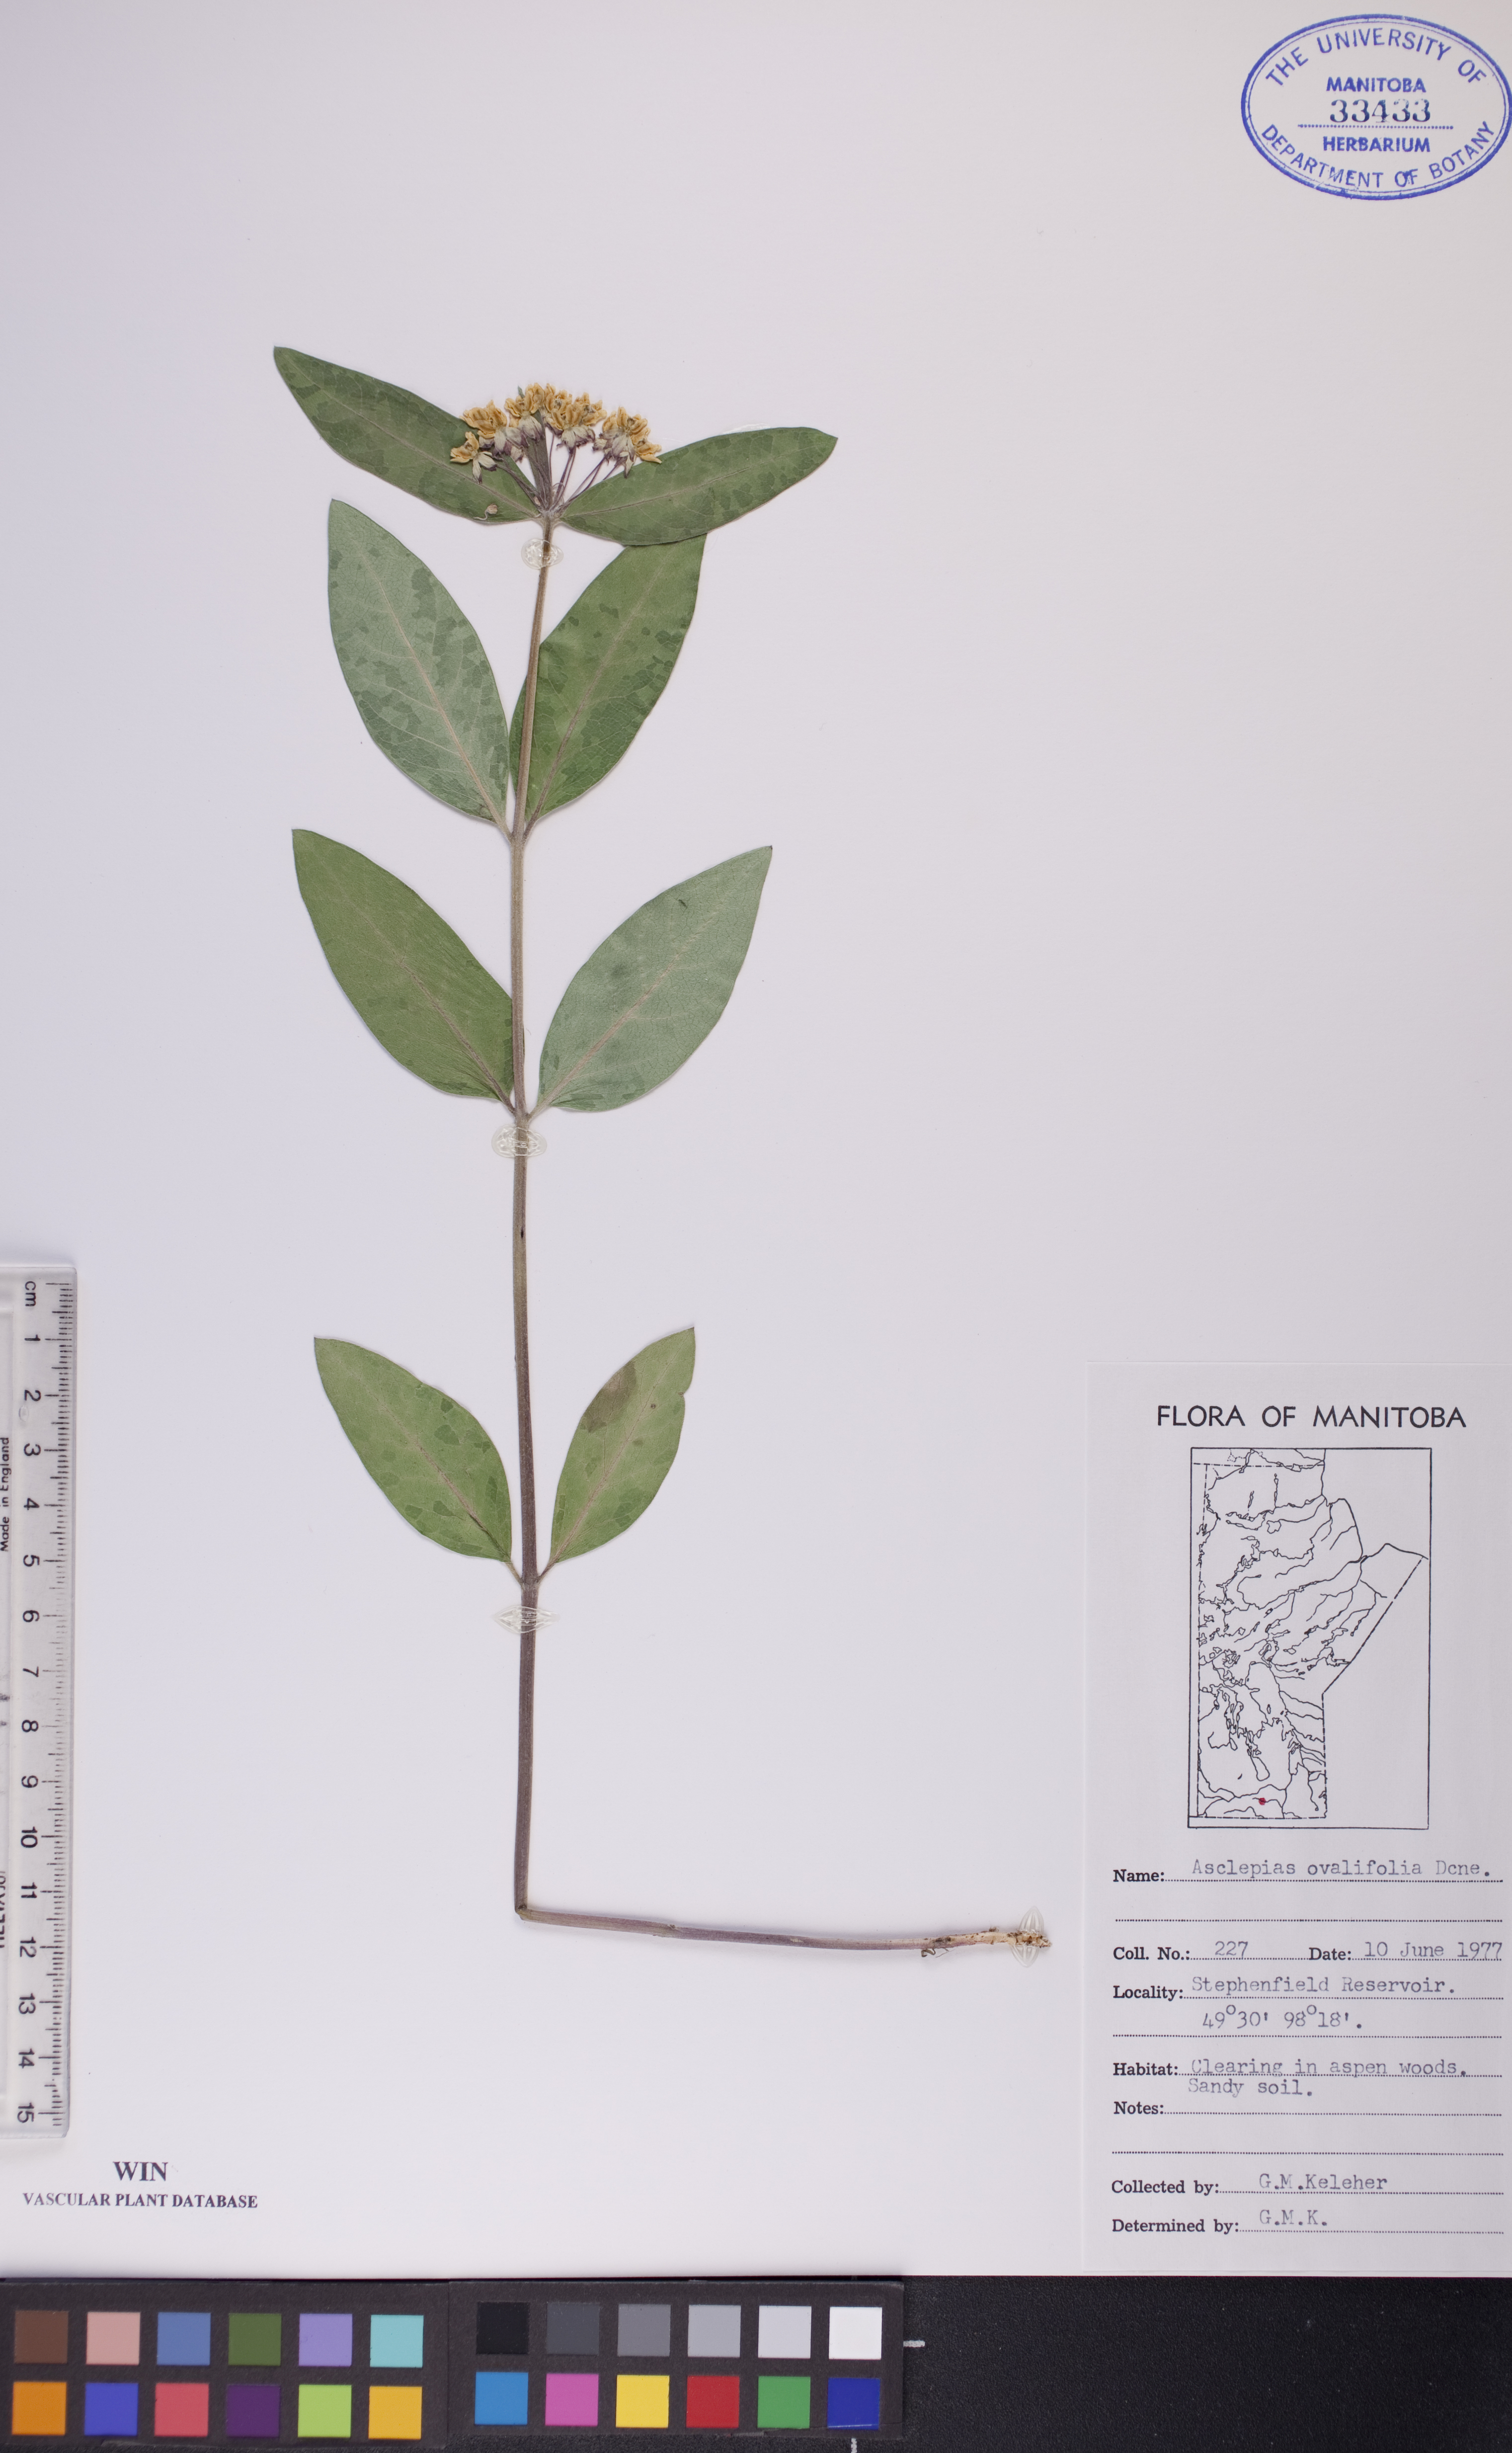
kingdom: Plantae
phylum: Tracheophyta
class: Magnoliopsida
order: Gentianales
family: Apocynaceae
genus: Asclepias
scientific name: Asclepias ovalifolia
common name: Dwarf milkweed
